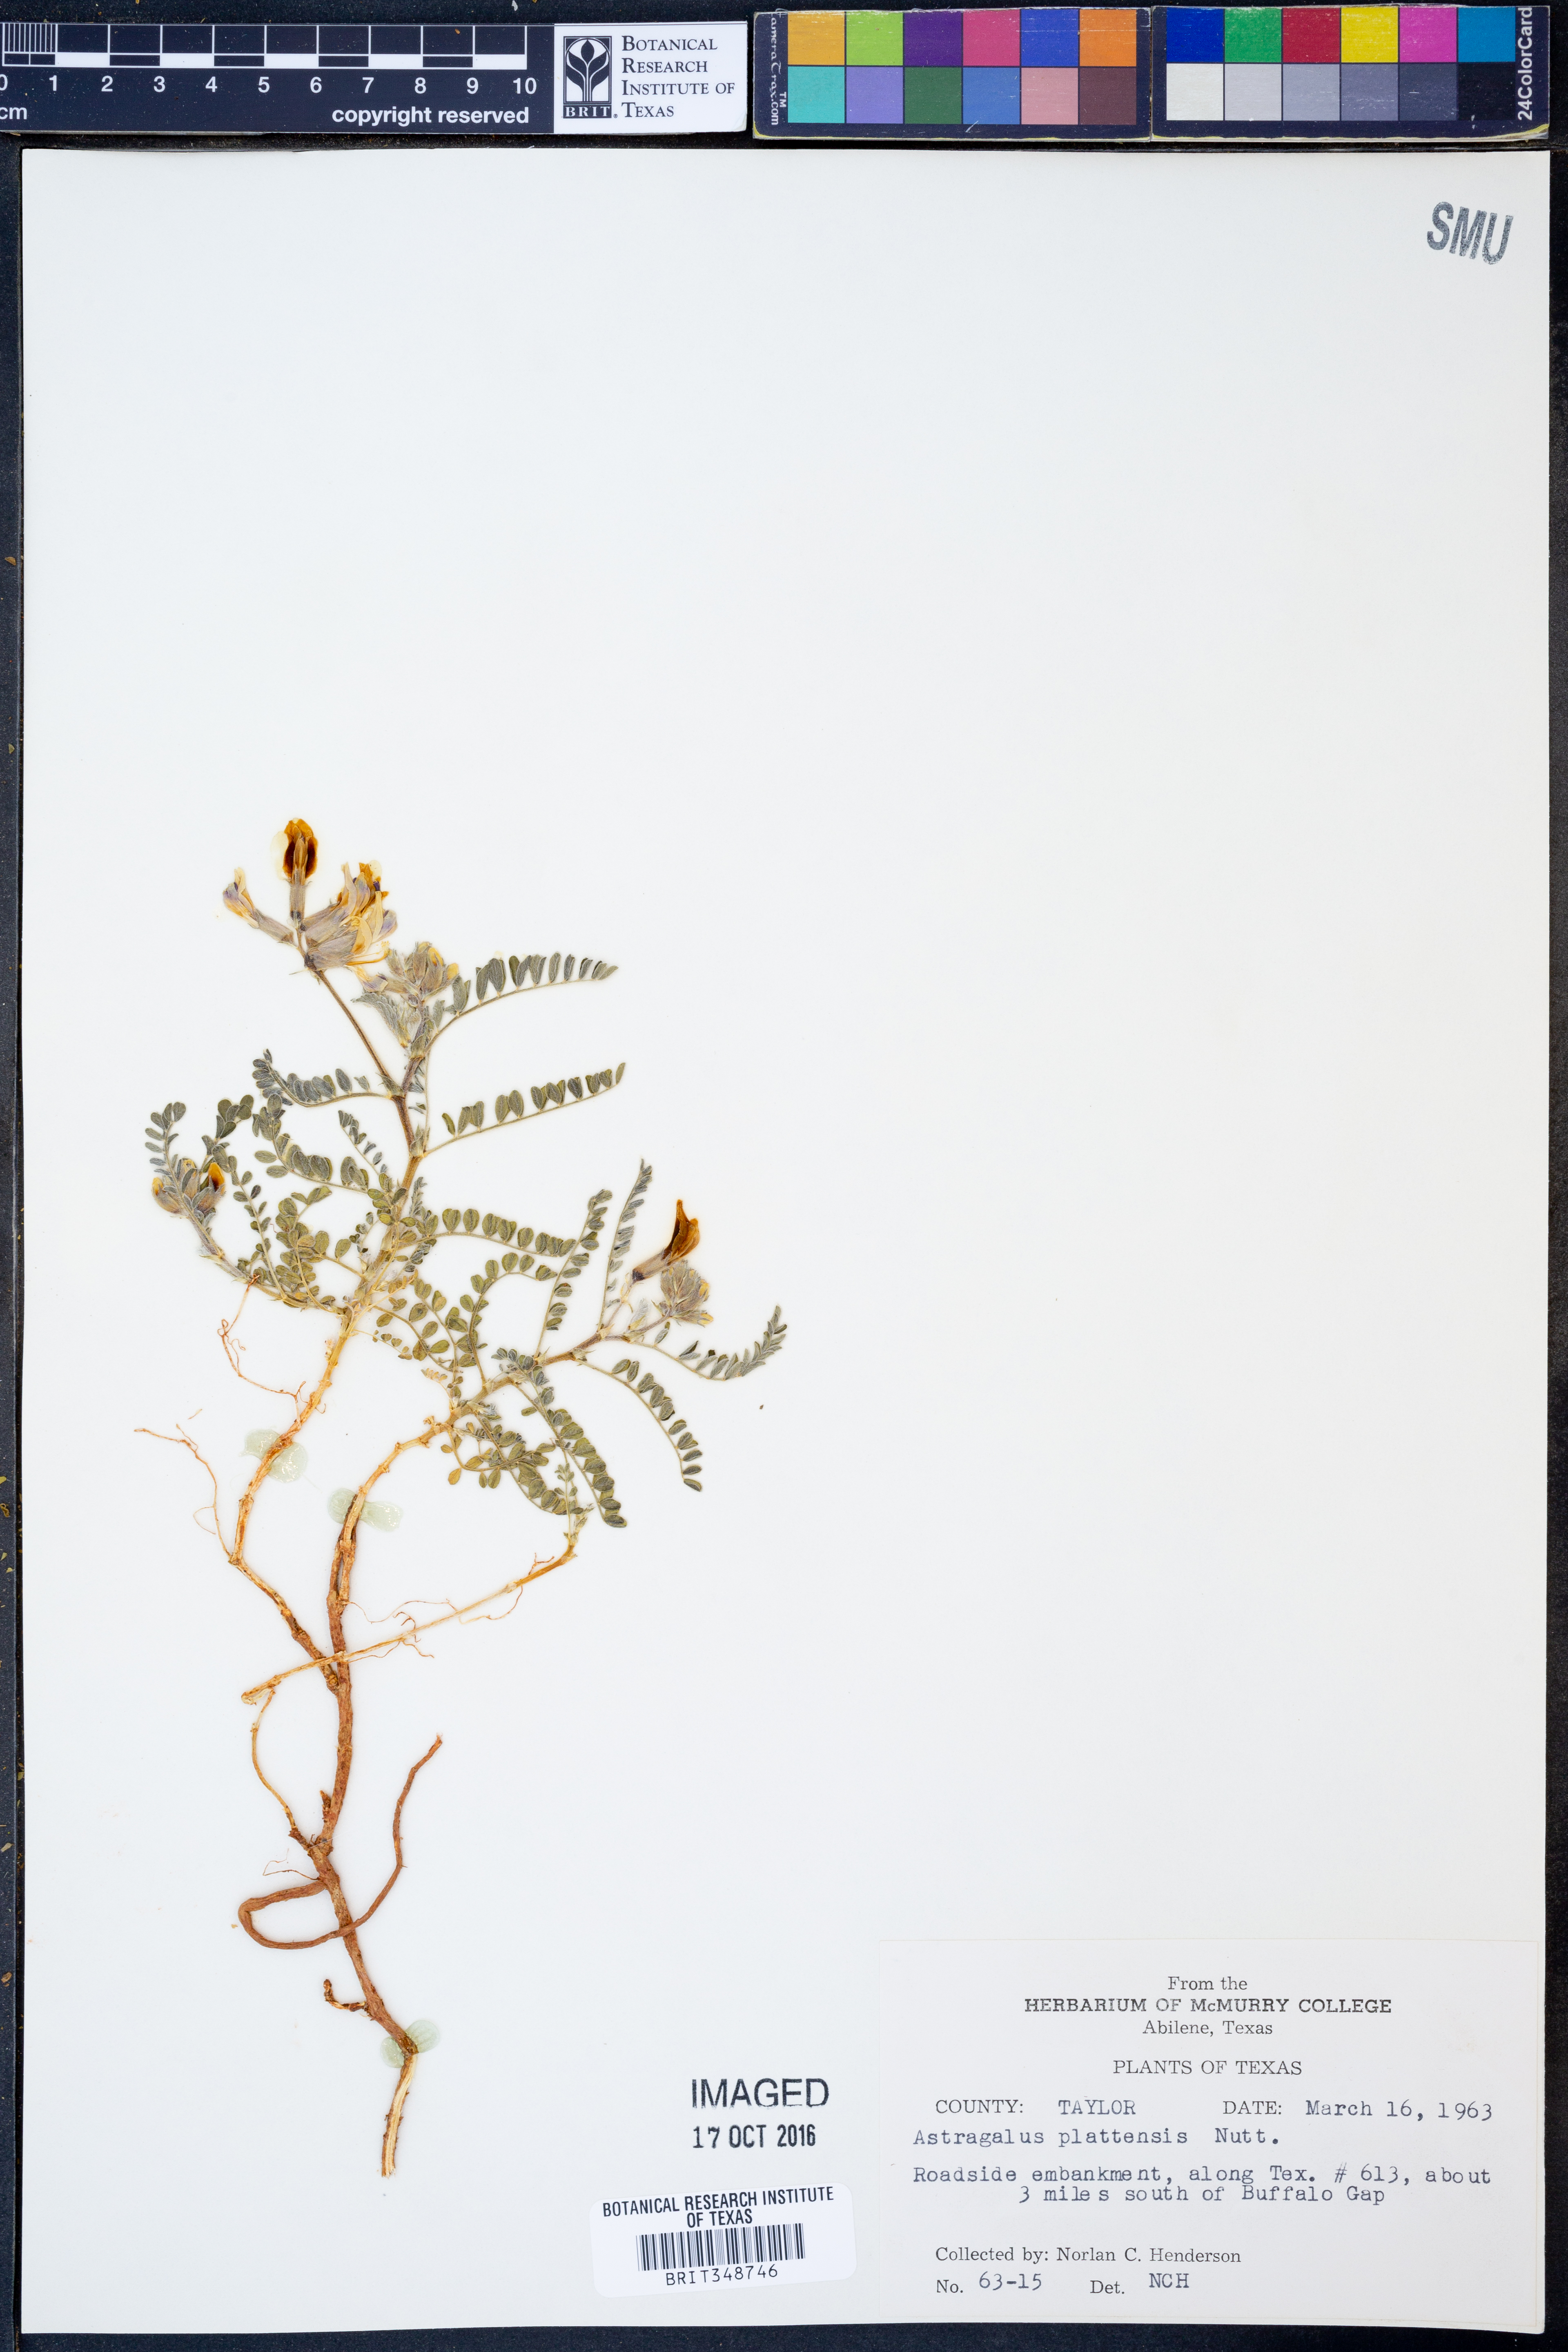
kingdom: Plantae
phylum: Tracheophyta
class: Magnoliopsida
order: Fabales
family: Fabaceae
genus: Astragalus
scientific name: Astragalus plattensis
